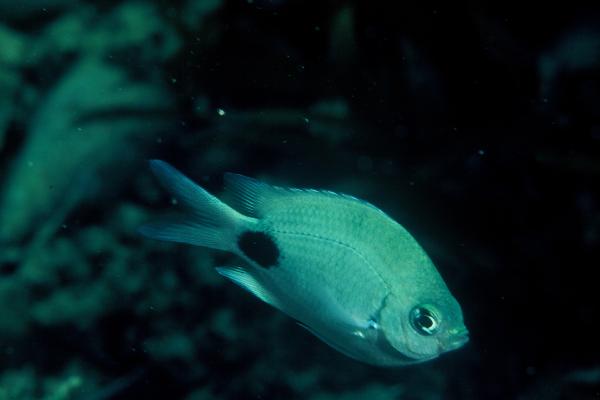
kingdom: Animalia
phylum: Chordata
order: Perciformes
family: Pomacentridae
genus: Abudefduf
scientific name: Abudefduf sparoides
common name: False-eye sergeant
